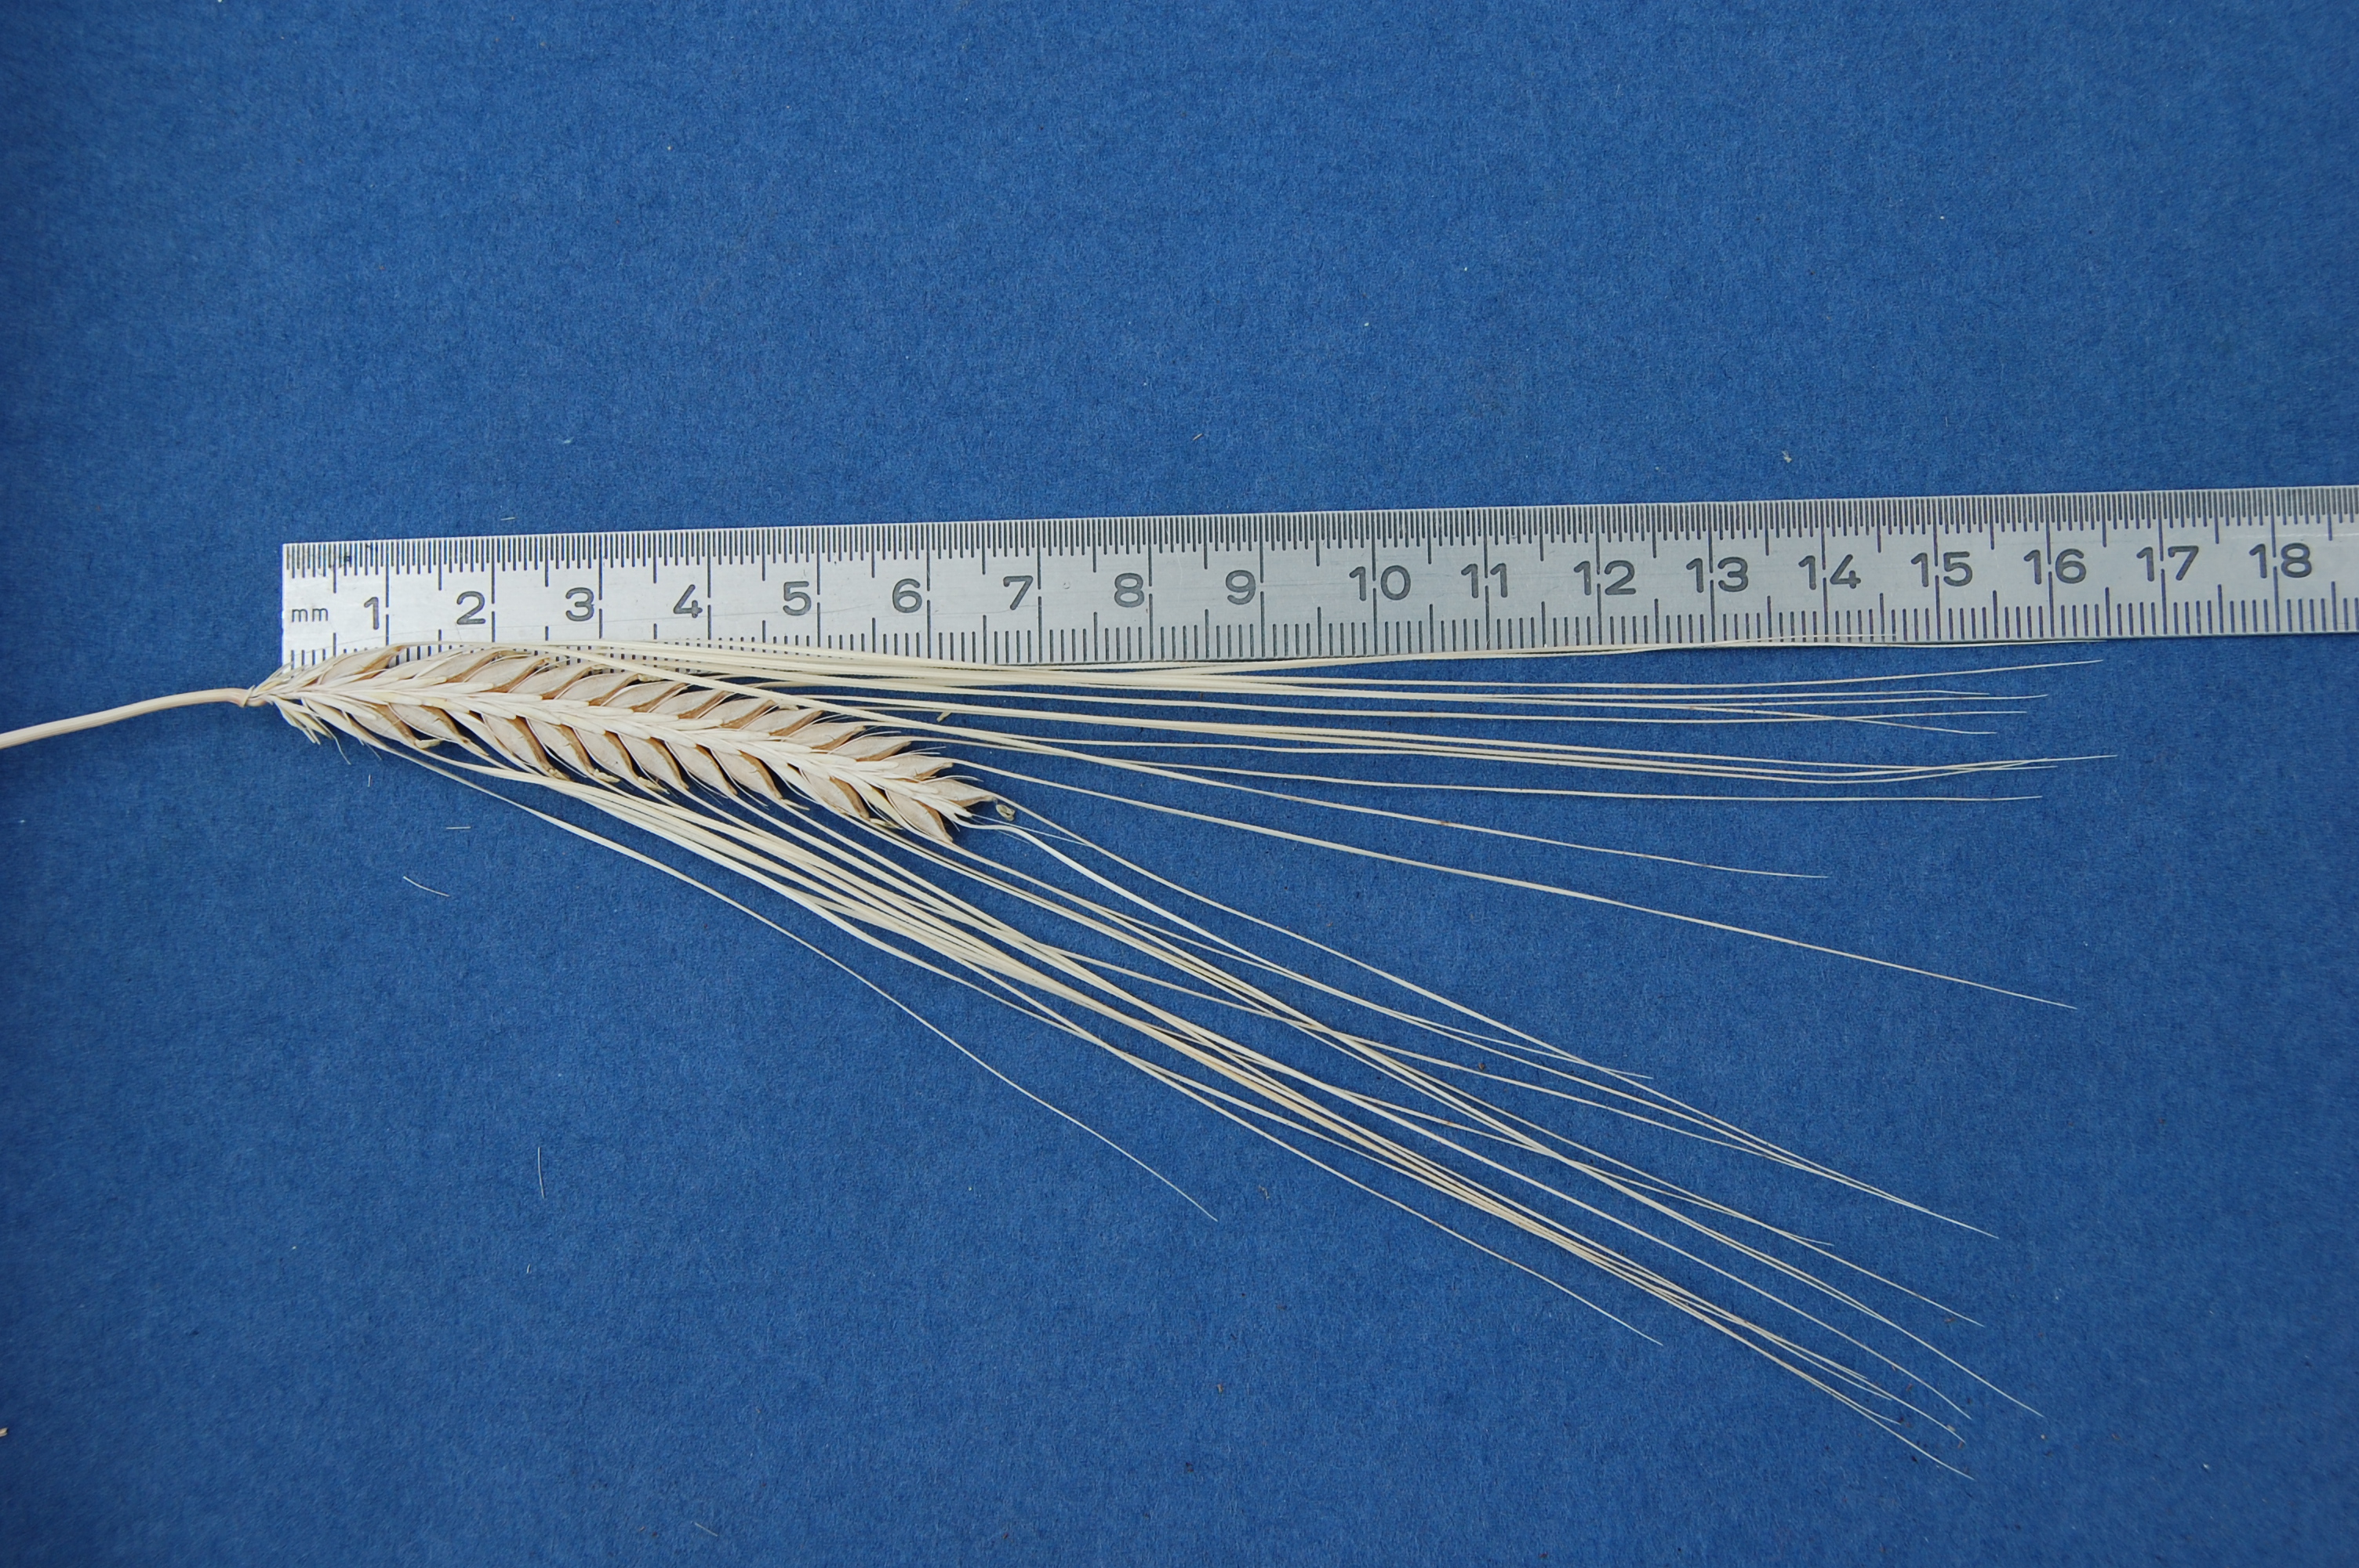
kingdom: Plantae
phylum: Tracheophyta
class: Liliopsida
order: Poales
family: Poaceae
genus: Hordeum
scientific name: Hordeum vulgare
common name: Common barley
